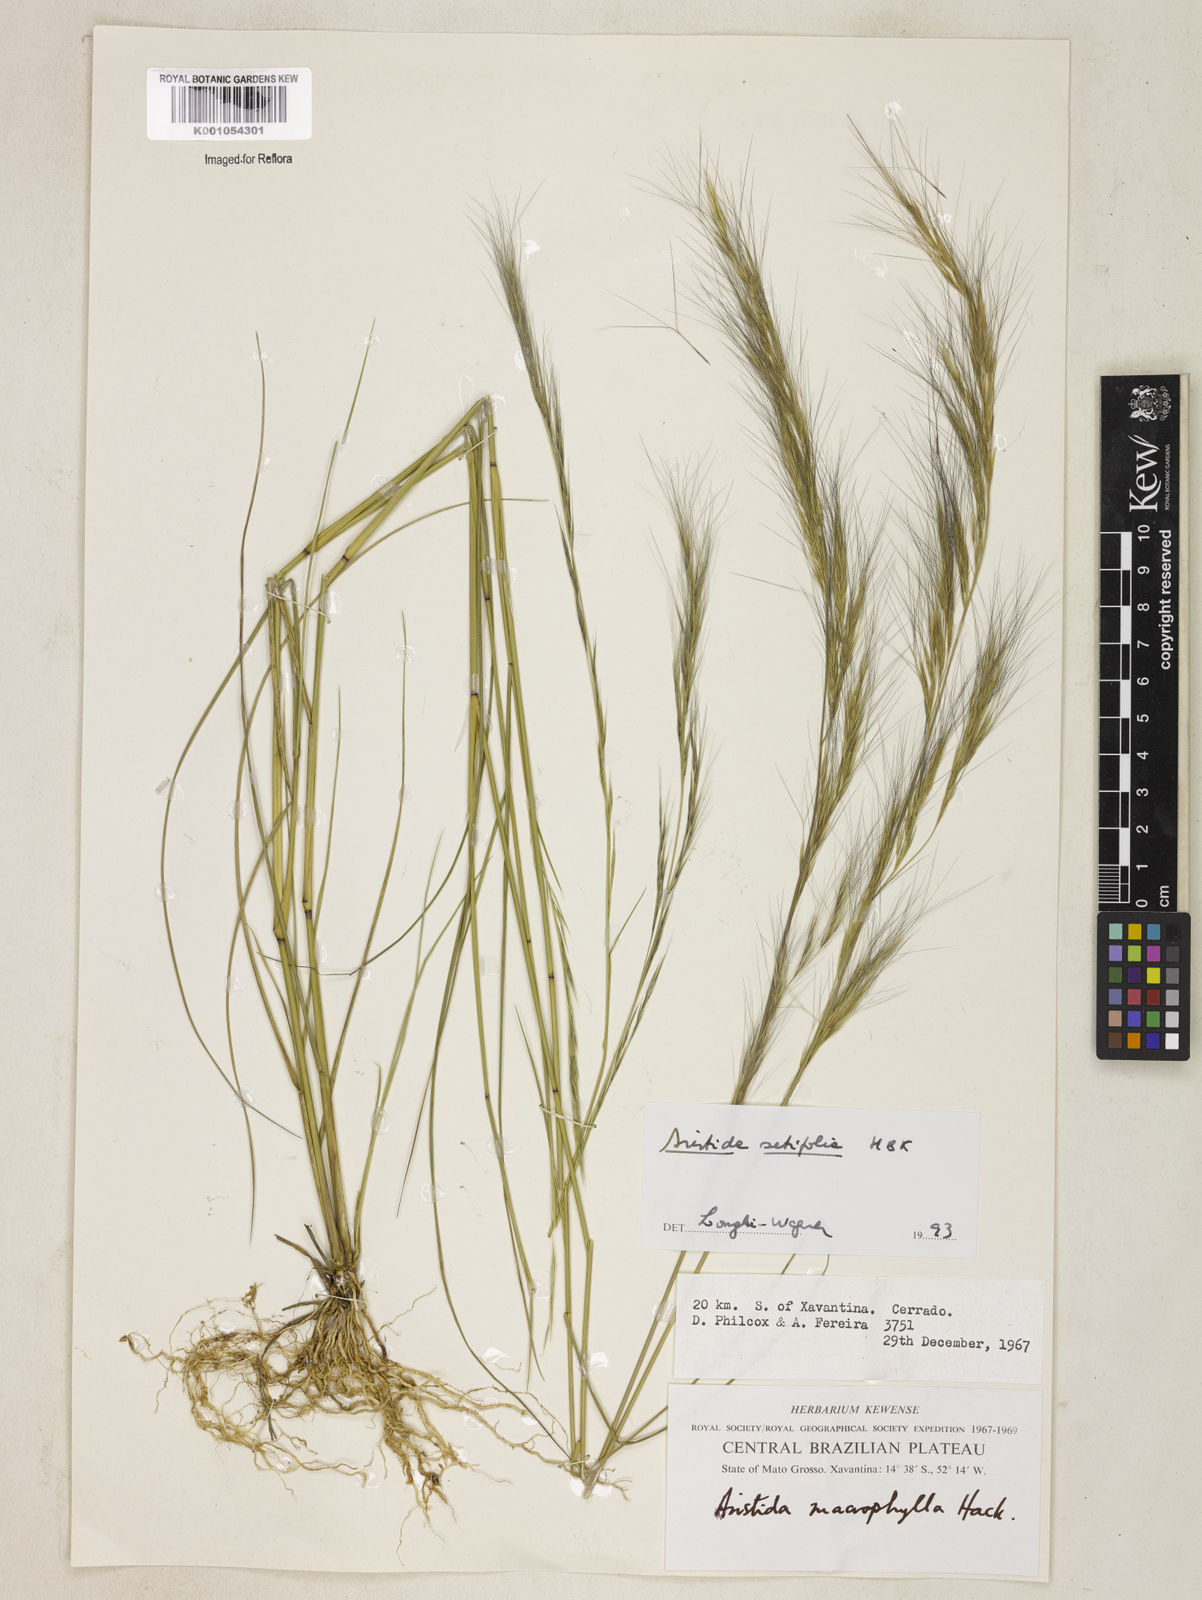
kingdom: Plantae
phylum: Tracheophyta
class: Liliopsida
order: Poales
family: Poaceae
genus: Aristida
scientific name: Aristida setifolia
